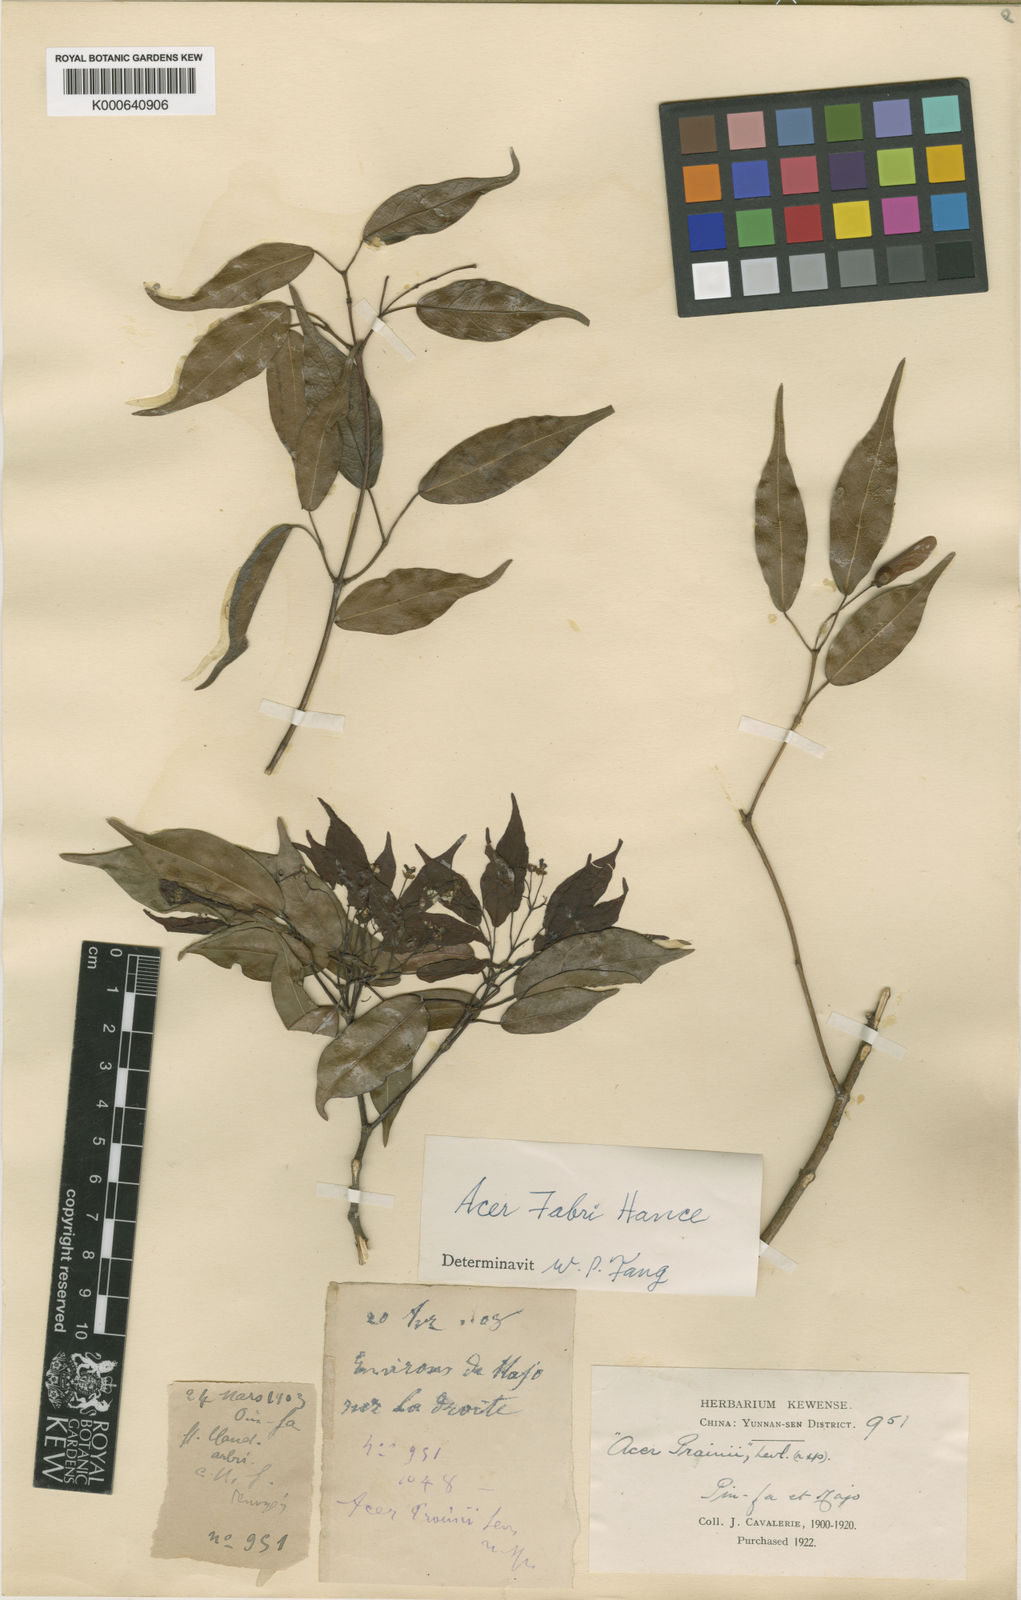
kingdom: Plantae
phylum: Tracheophyta
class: Magnoliopsida
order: Sapindales
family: Sapindaceae
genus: Acer
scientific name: Acer fabri
